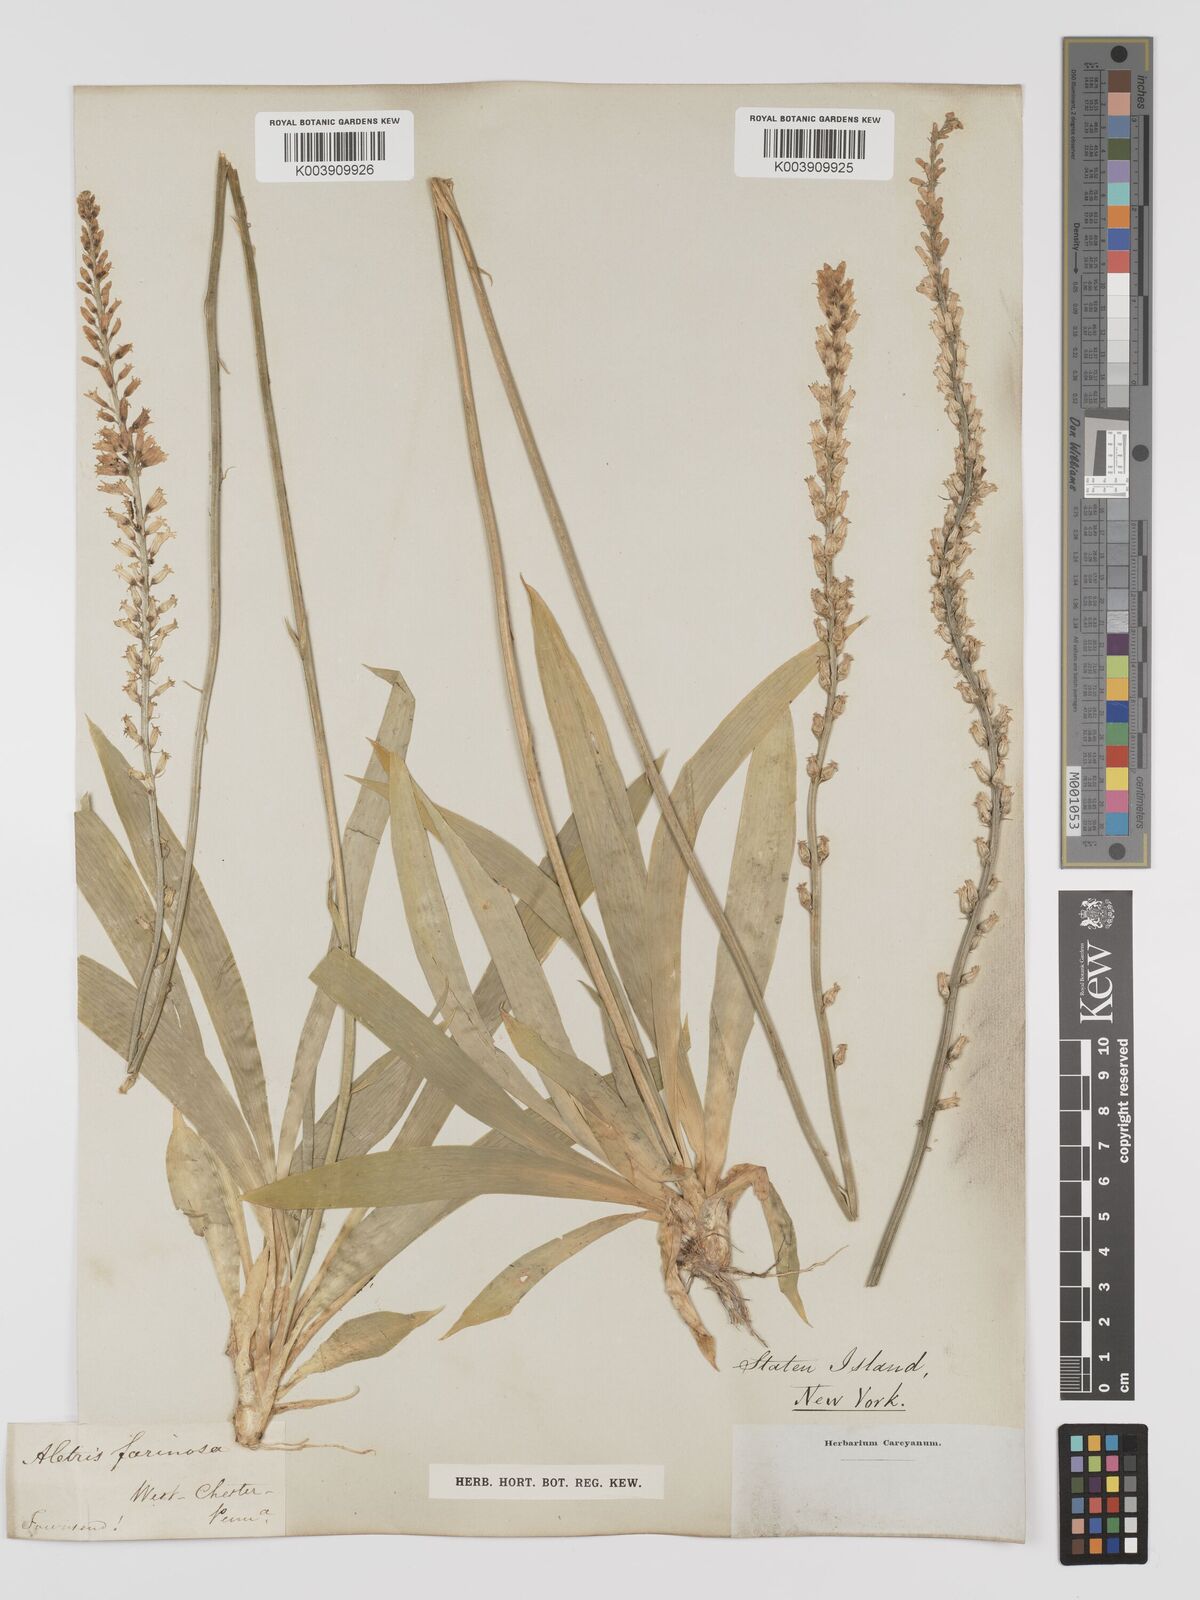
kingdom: Plantae
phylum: Tracheophyta
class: Liliopsida
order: Dioscoreales
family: Nartheciaceae
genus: Aletris
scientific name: Aletris farinosa
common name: Colicroot
